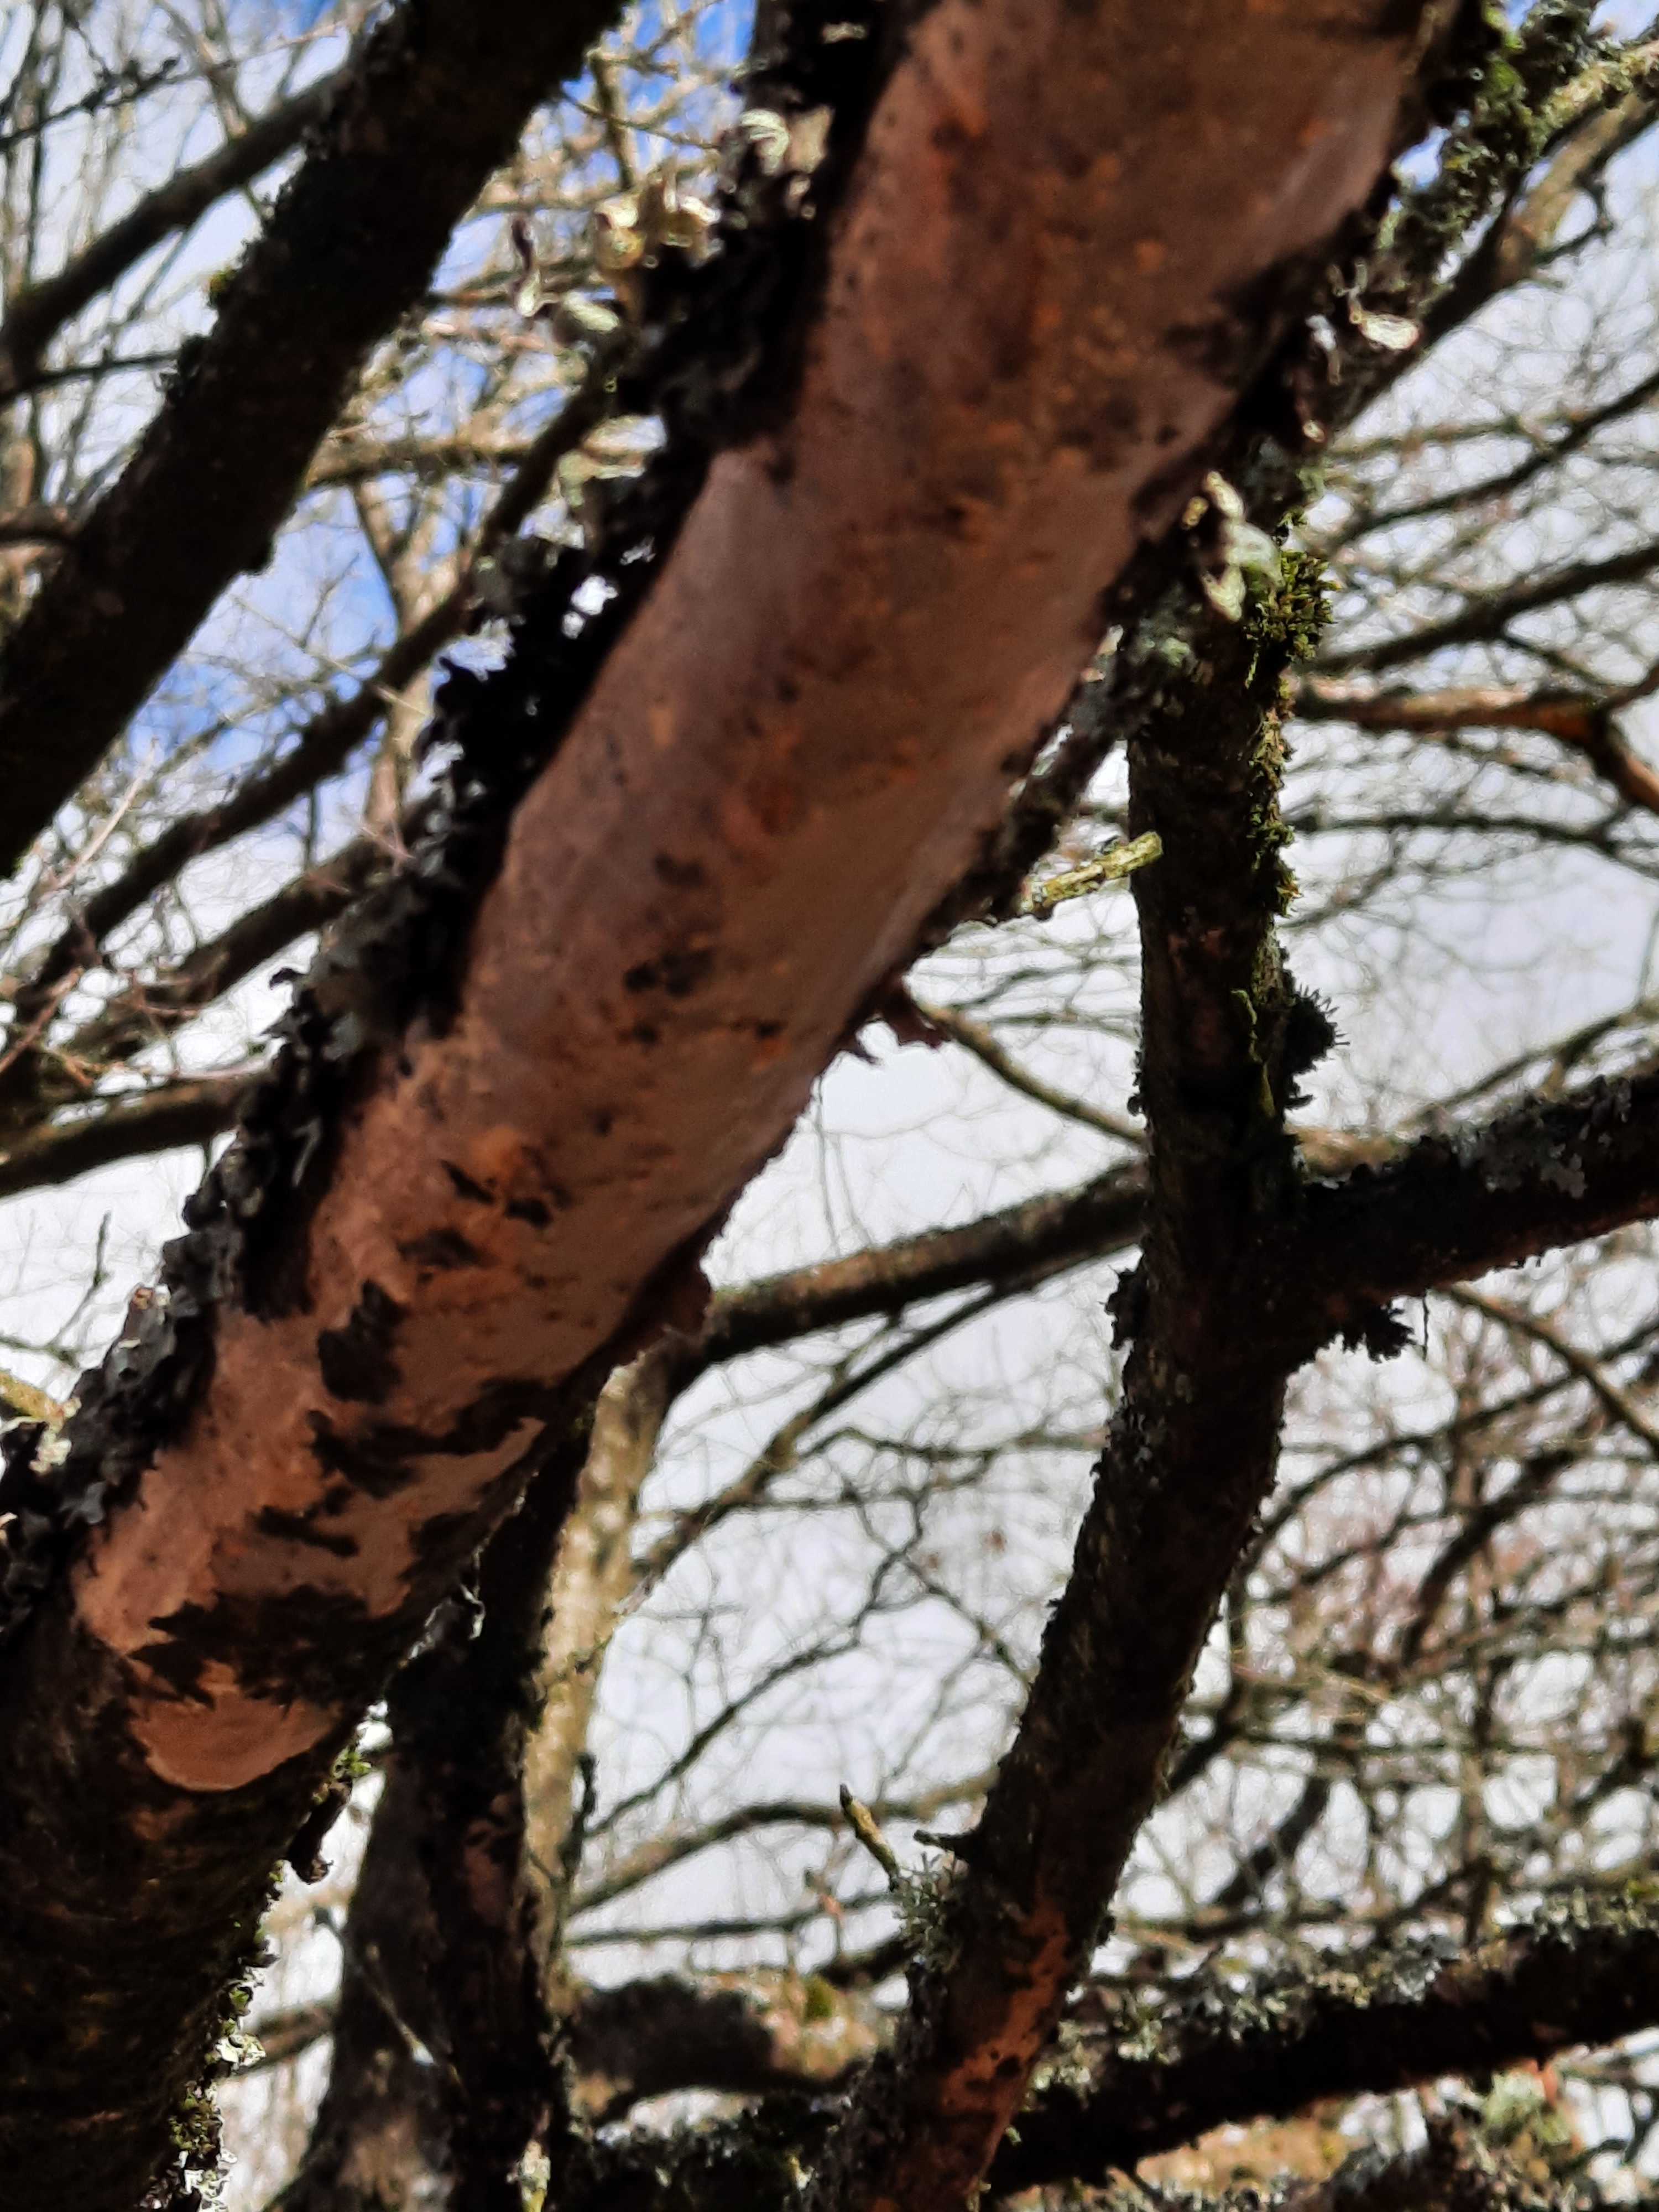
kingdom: Fungi
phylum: Basidiomycota
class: Agaricomycetes
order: Corticiales
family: Vuilleminiaceae
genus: Vuilleminia
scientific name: Vuilleminia comedens
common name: almindelig barksprænger
